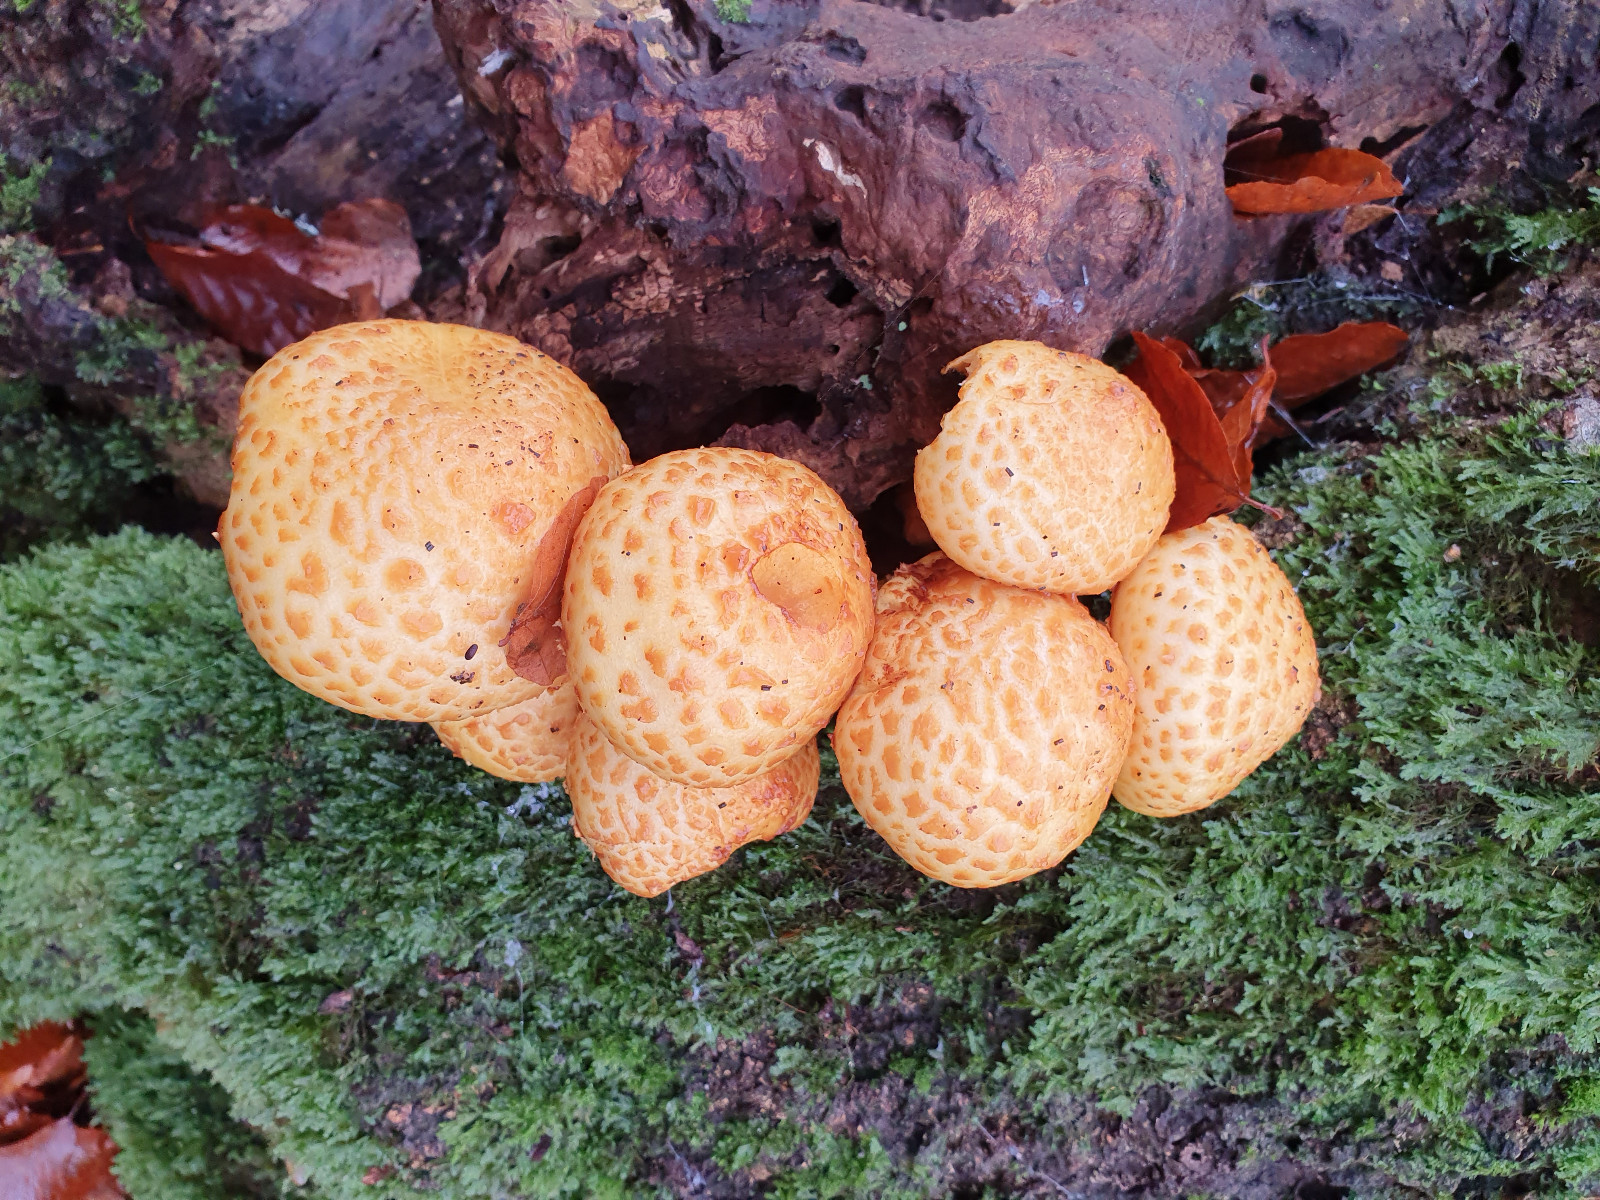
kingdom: Fungi
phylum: Basidiomycota
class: Agaricomycetes
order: Agaricales
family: Strophariaceae
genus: Pholiota
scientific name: Pholiota adiposa
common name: højtsiddende skælhat
